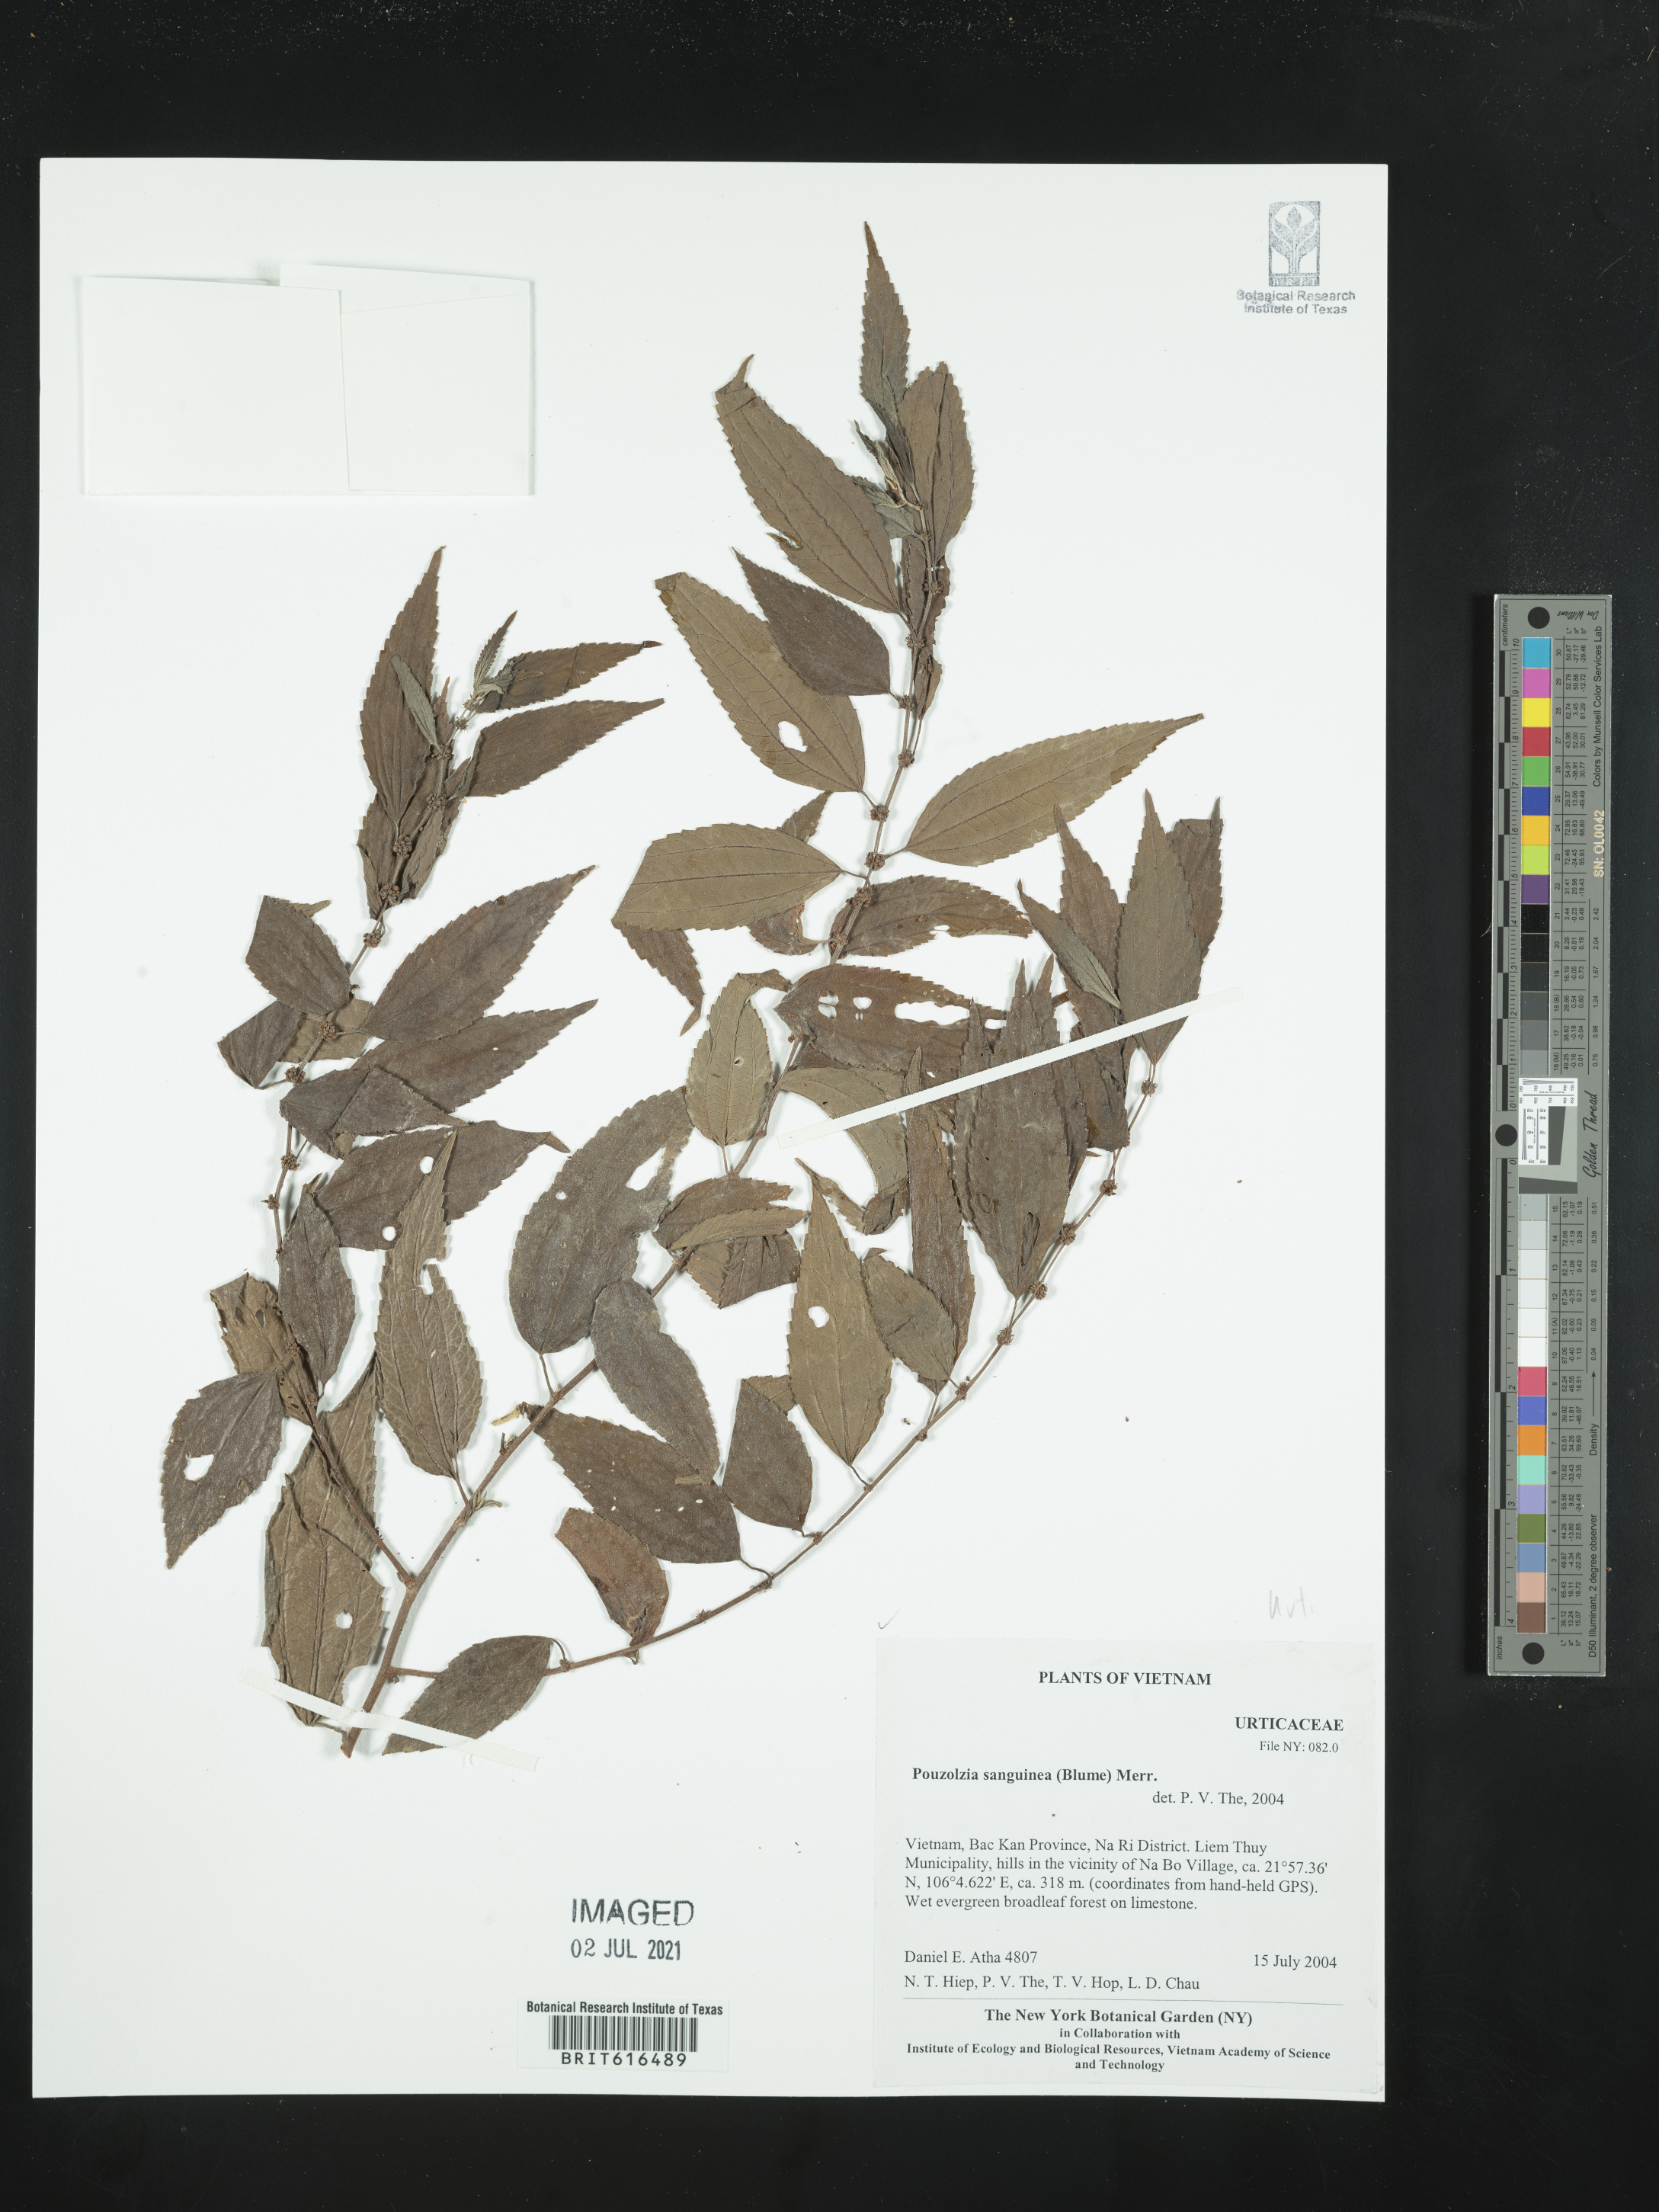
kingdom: Plantae
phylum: Tracheophyta
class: Magnoliopsida
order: Rosales
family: Urticaceae
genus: Pouzolzia
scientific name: Pouzolzia sanguinea
